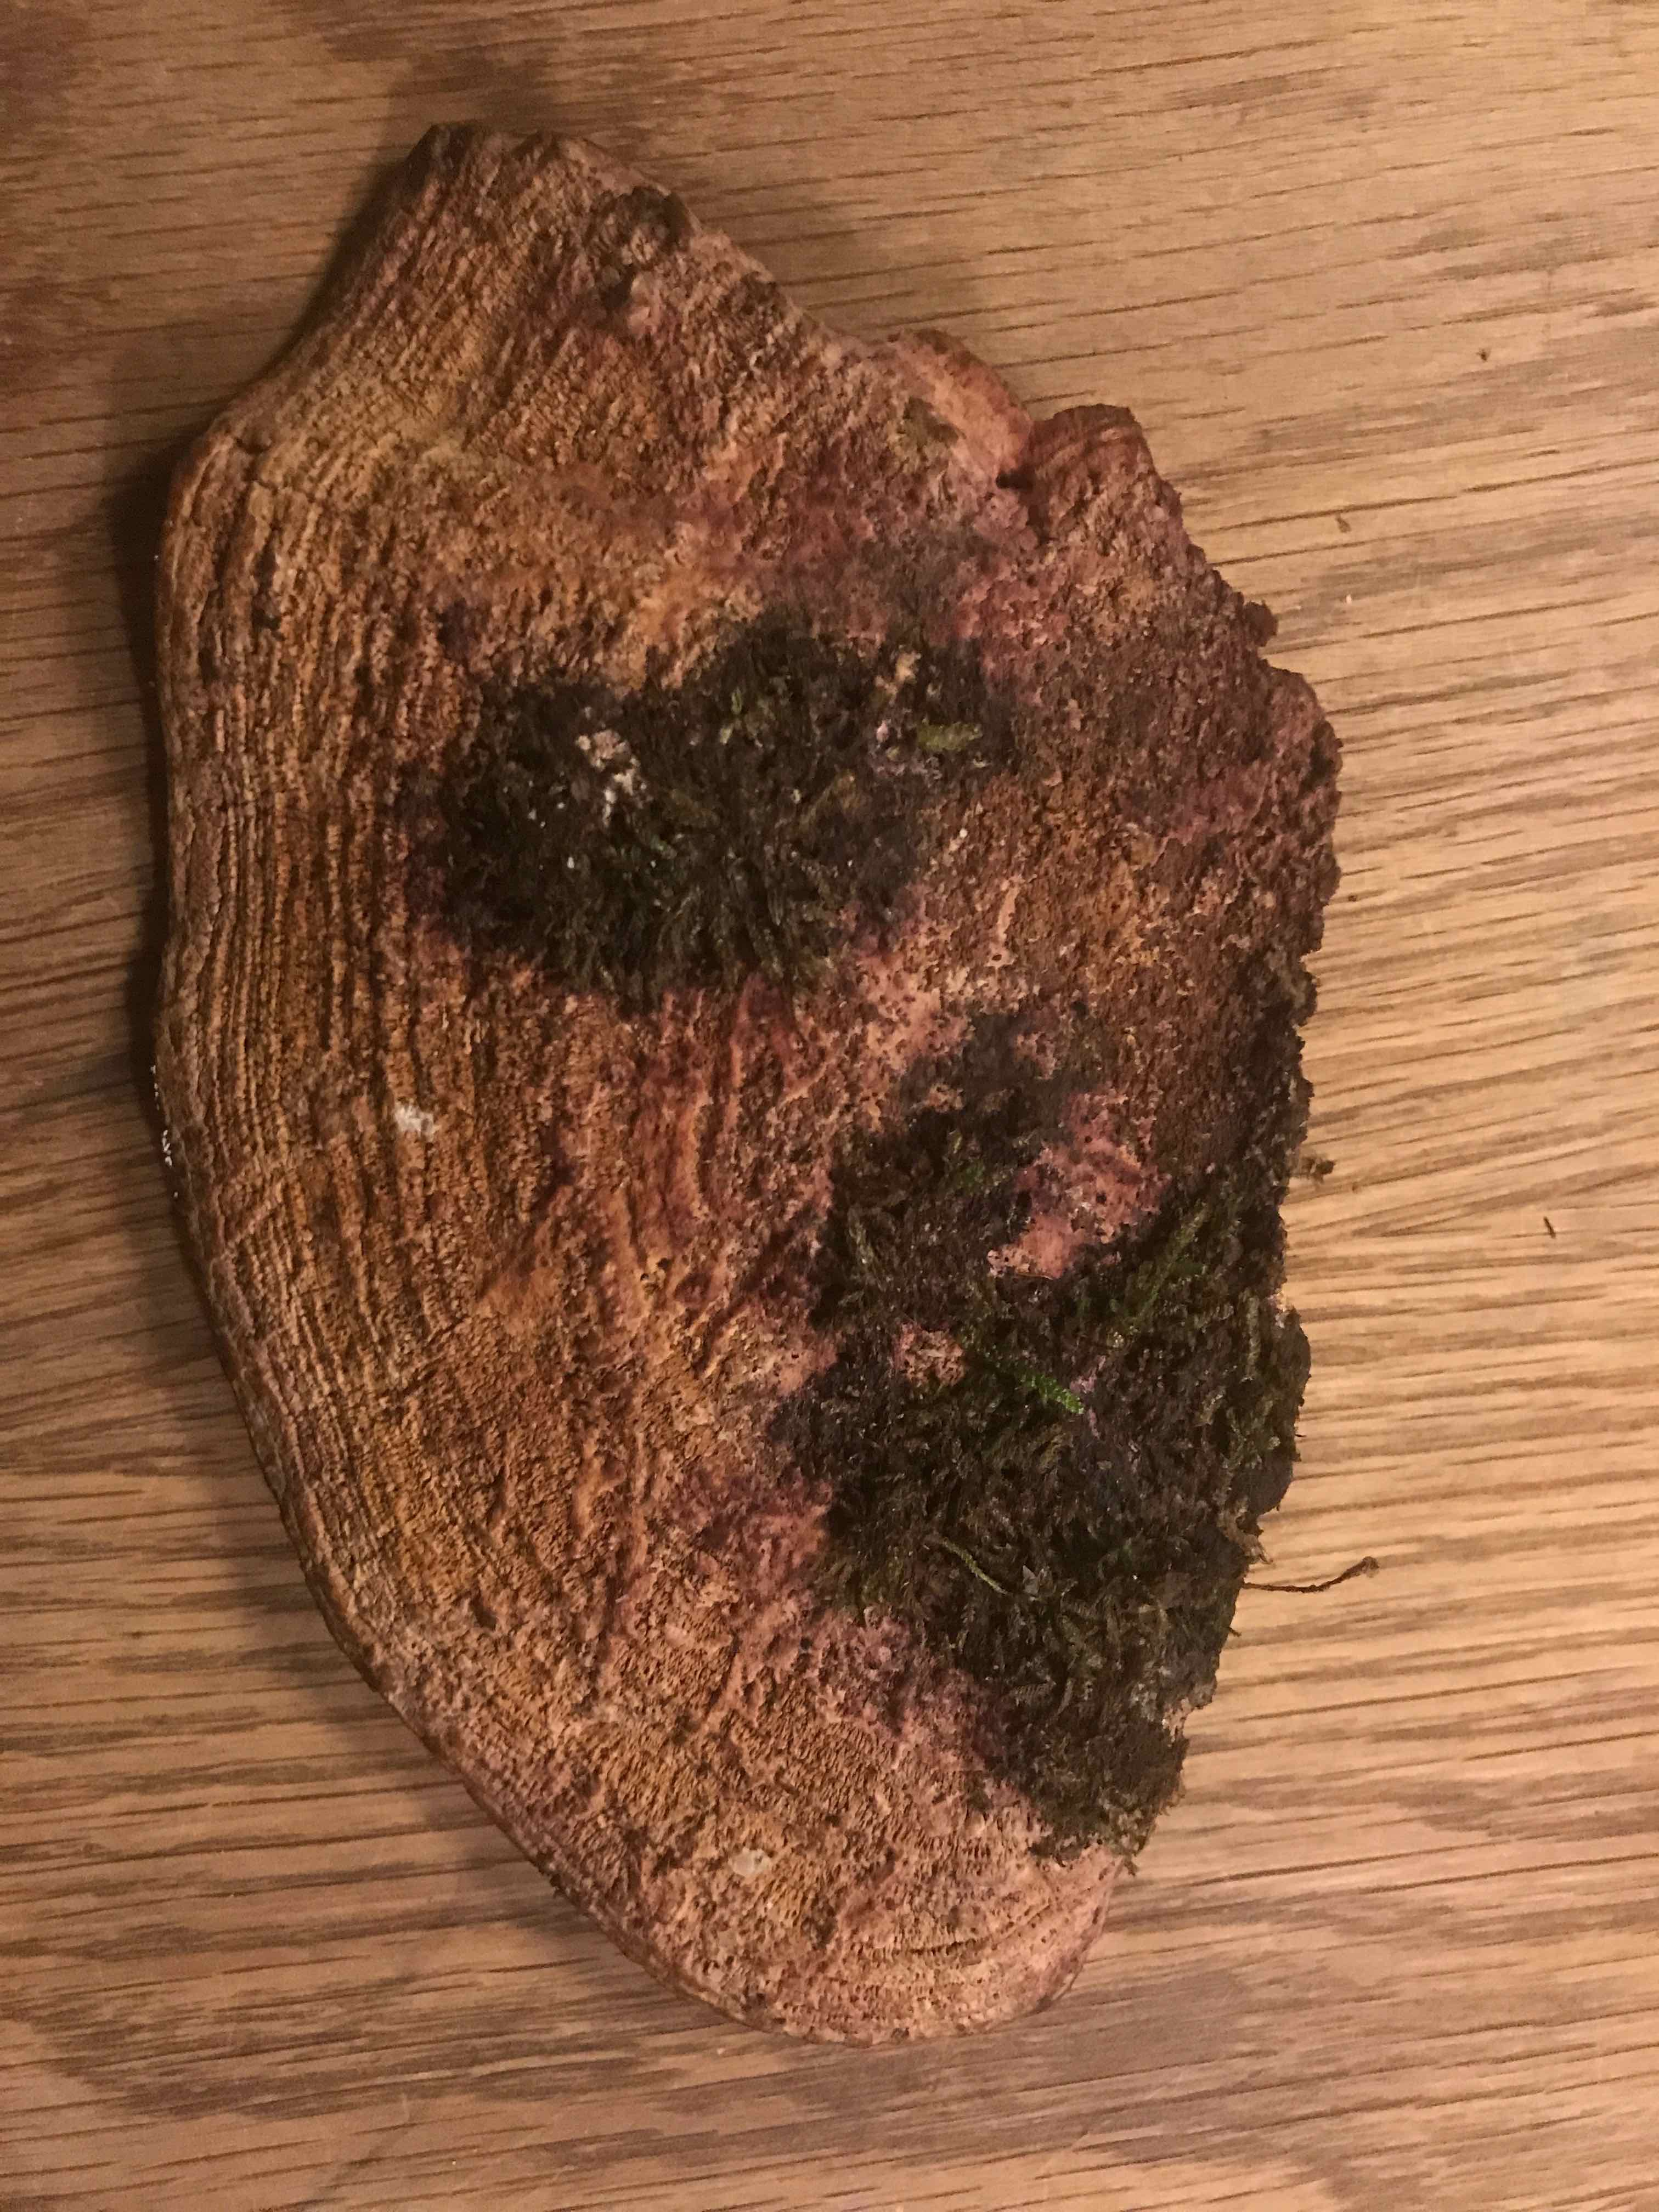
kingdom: Fungi
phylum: Basidiomycota
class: Agaricomycetes
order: Polyporales
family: Fomitopsidaceae
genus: Daedalea
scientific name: Daedalea quercina
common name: ege-labyrintsvamp
